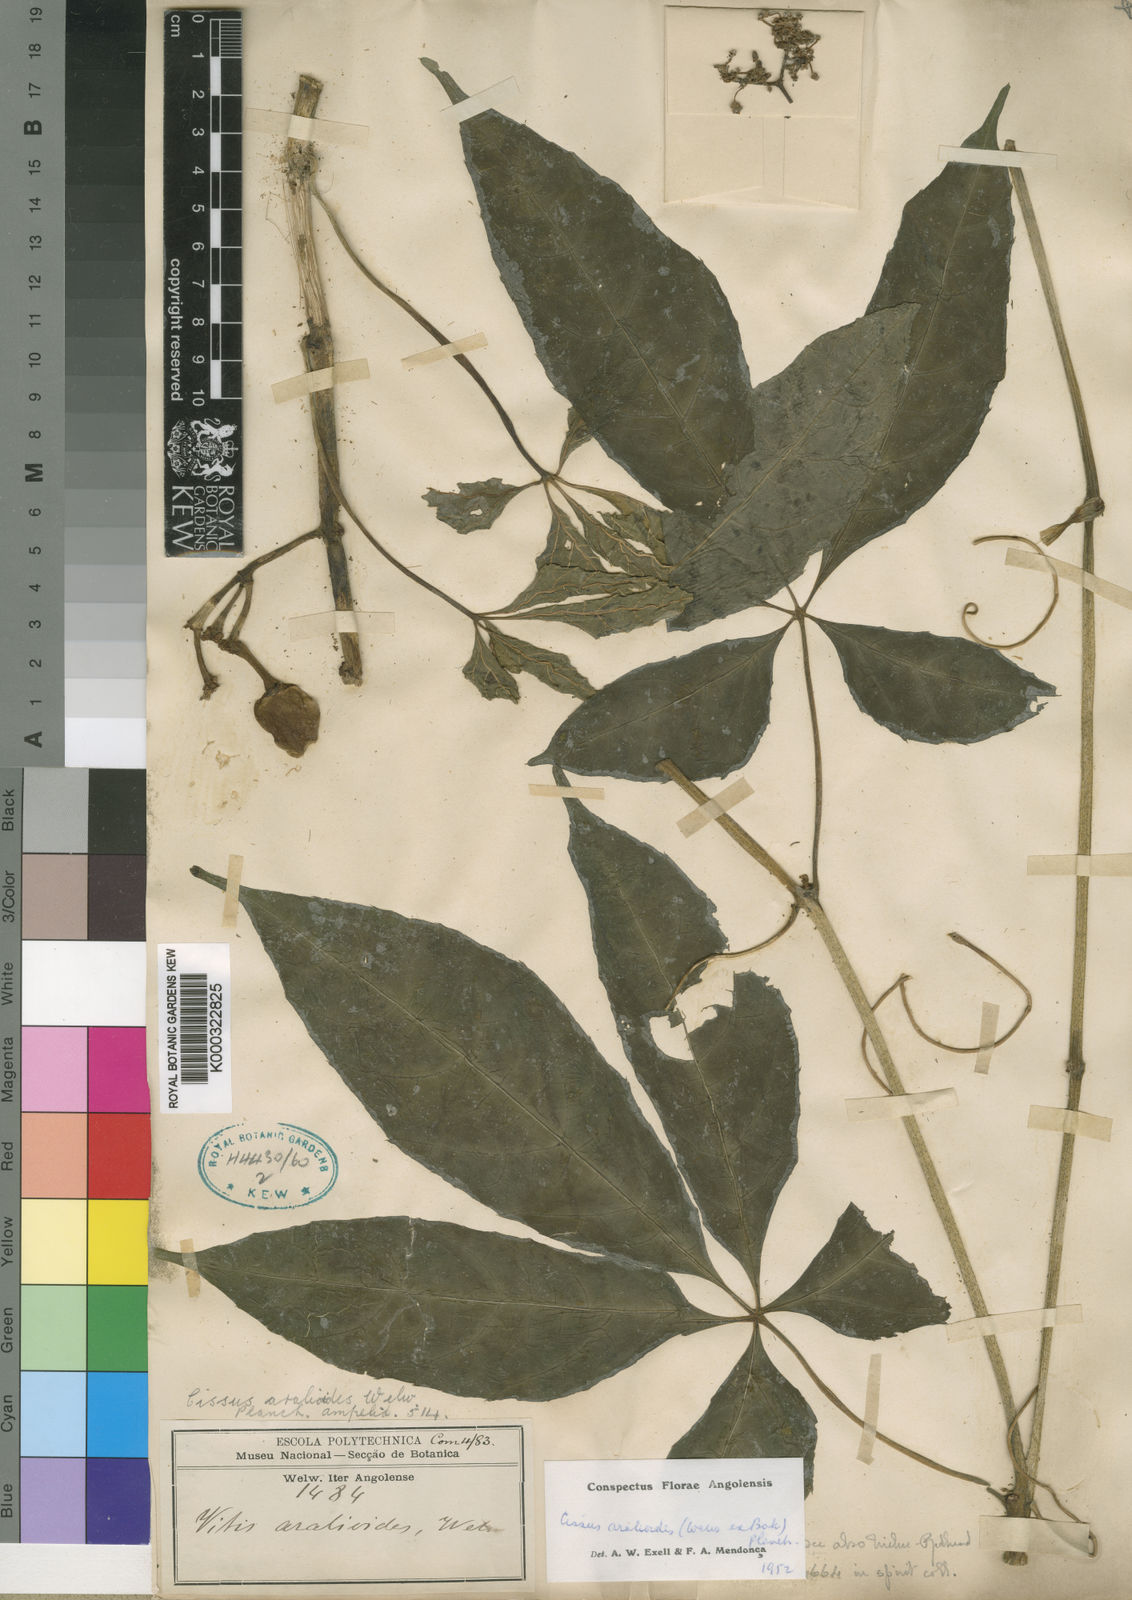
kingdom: Plantae
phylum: Tracheophyta
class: Magnoliopsida
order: Vitales
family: Vitaceae
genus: Cissus
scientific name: Cissus aralioides
